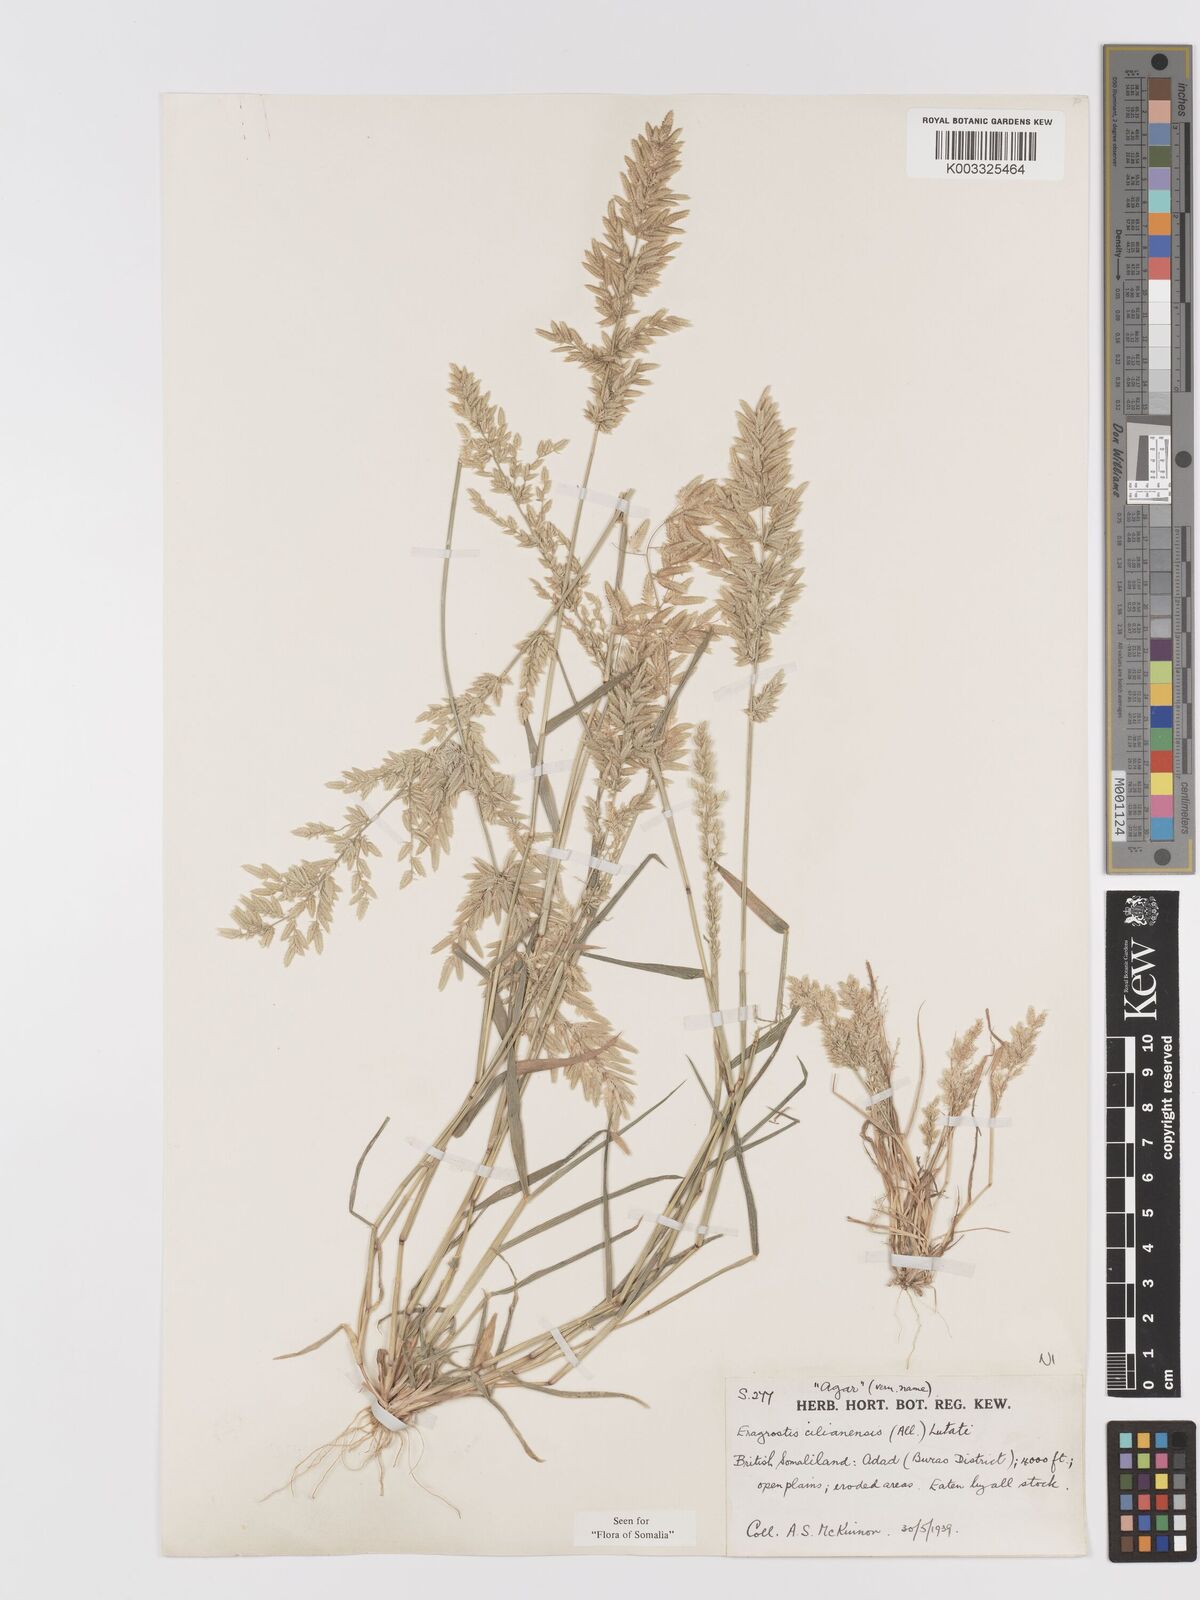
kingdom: Plantae
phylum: Tracheophyta
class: Liliopsida
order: Poales
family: Poaceae
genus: Eragrostis
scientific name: Eragrostis cilianensis
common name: Stinkgrass
